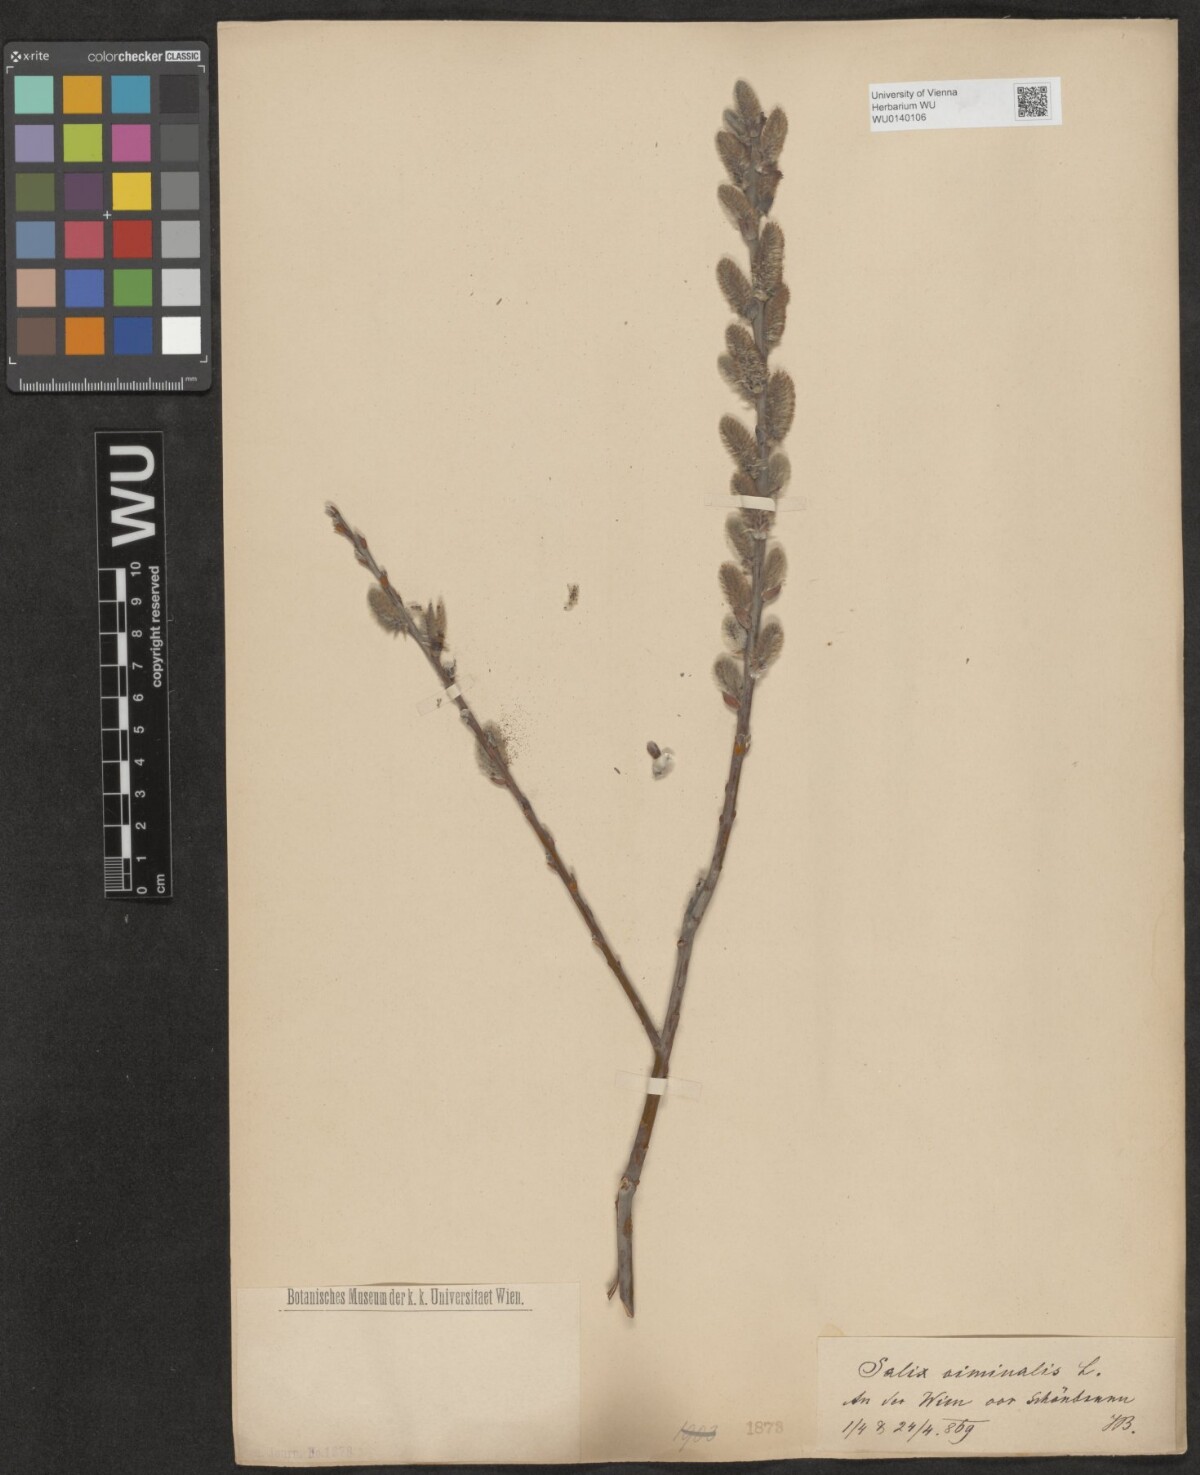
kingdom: Plantae
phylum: Tracheophyta
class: Magnoliopsida
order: Malpighiales
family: Salicaceae
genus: Salix
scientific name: Salix viminalis
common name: Osier
